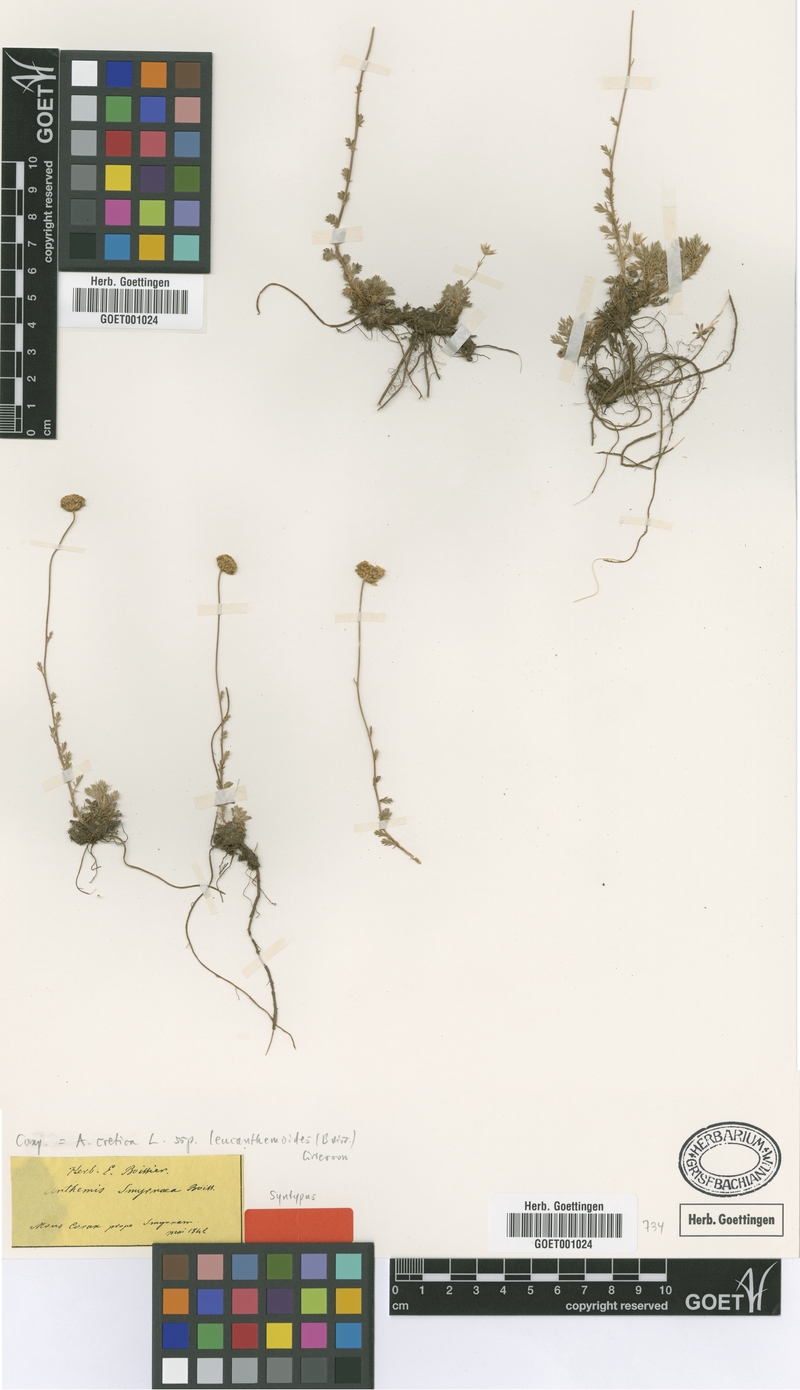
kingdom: Plantae
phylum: Tracheophyta
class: Magnoliopsida
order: Asterales
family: Asteraceae
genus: Anthemis
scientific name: Anthemis cretica
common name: Mountain dog-daisy
